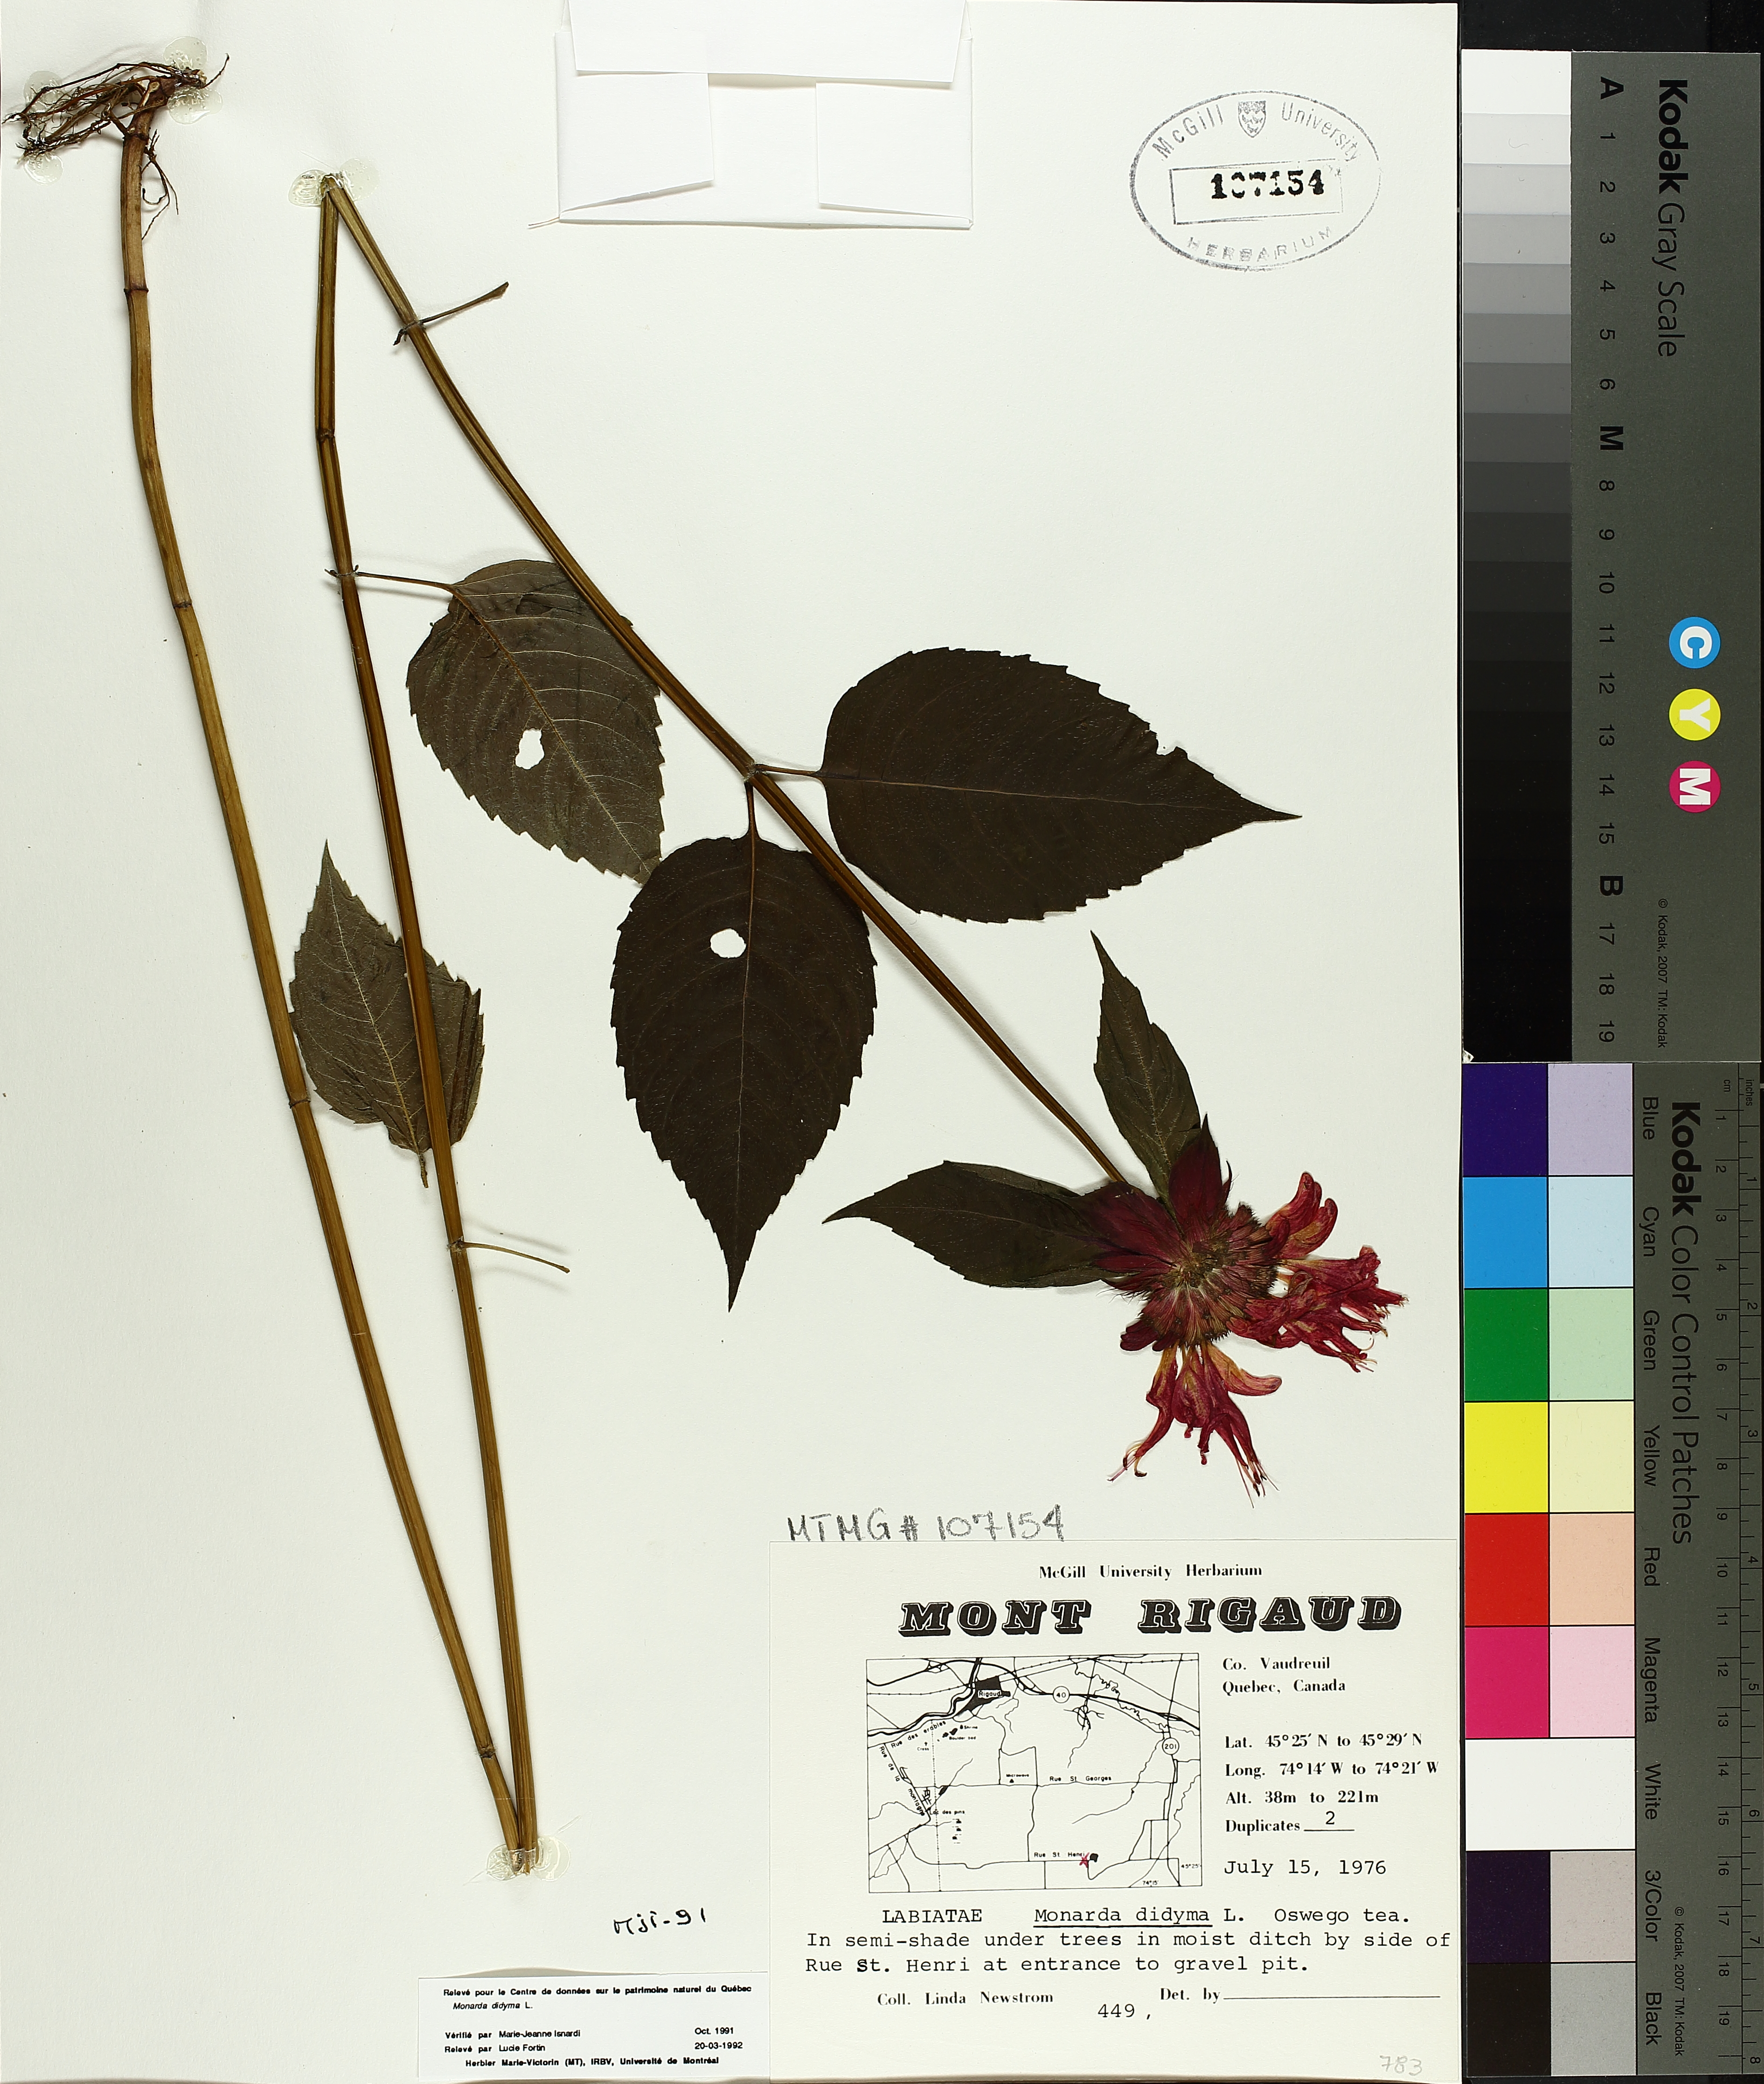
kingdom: Plantae
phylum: Tracheophyta
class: Magnoliopsida
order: Lamiales
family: Lamiaceae
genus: Monarda
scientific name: Monarda didyma
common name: Beebalm
